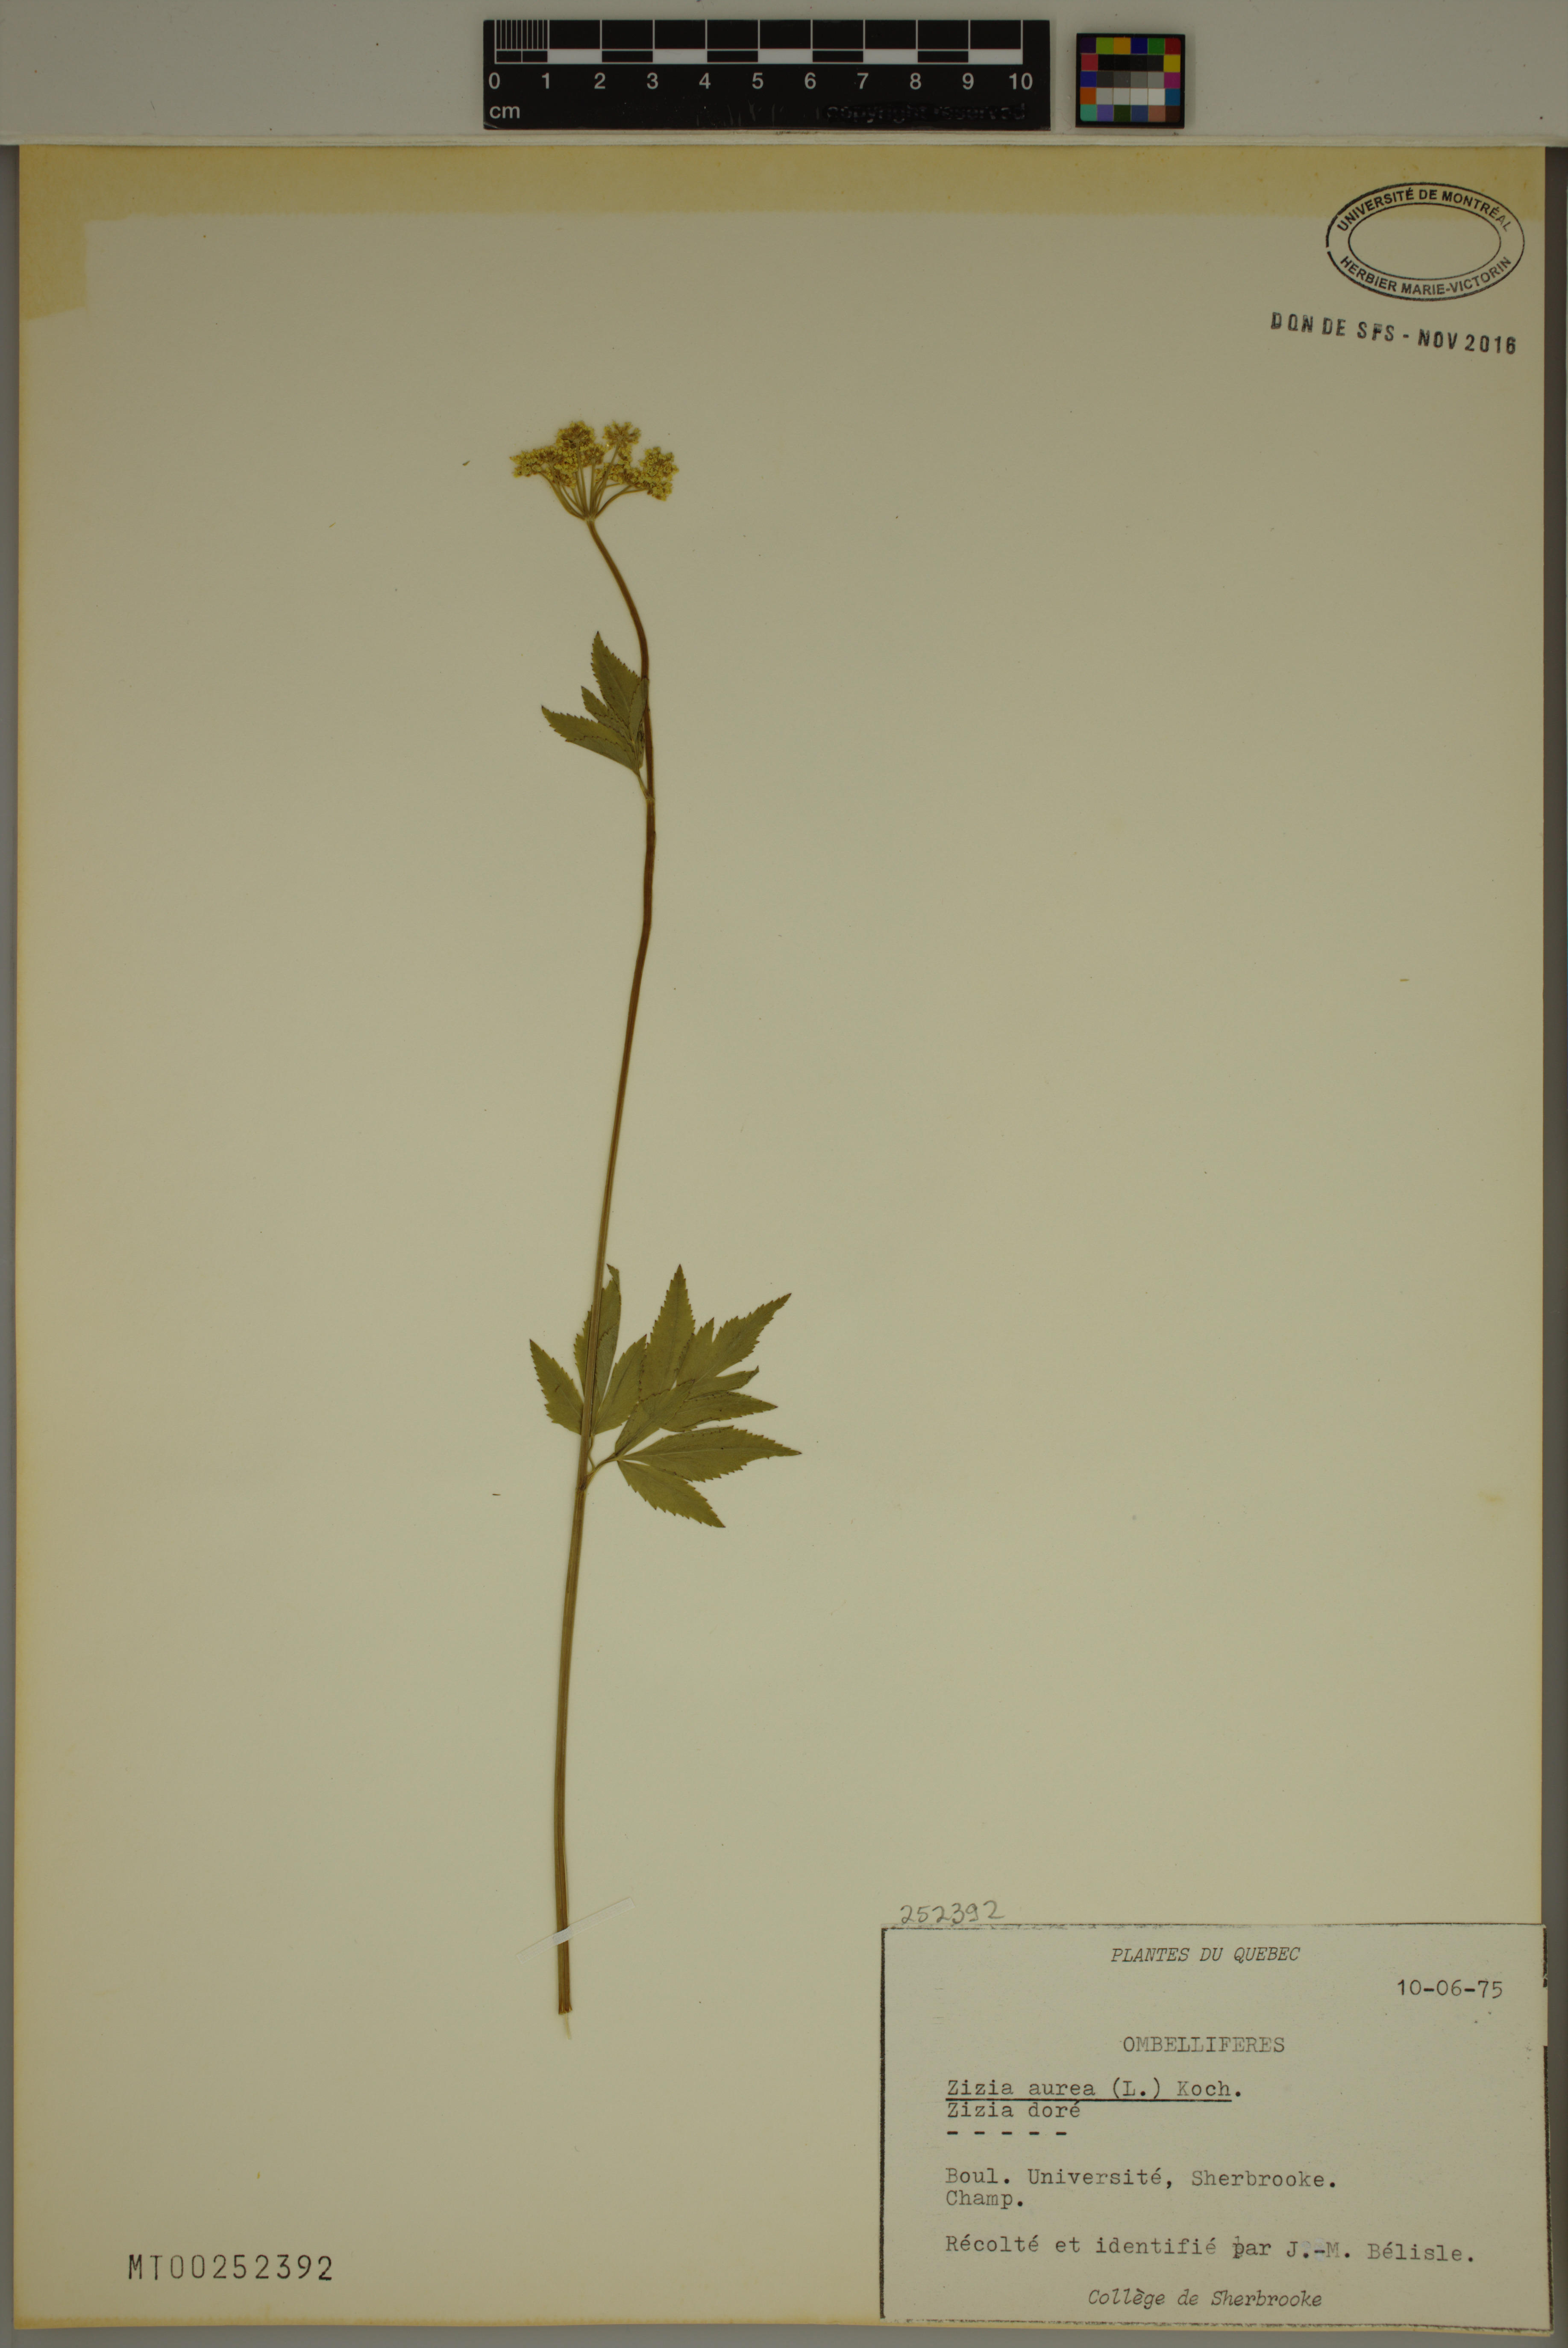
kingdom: Plantae
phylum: Tracheophyta
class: Magnoliopsida
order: Apiales
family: Apiaceae
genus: Zizia
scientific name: Zizia aurea
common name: Golden alexanders
